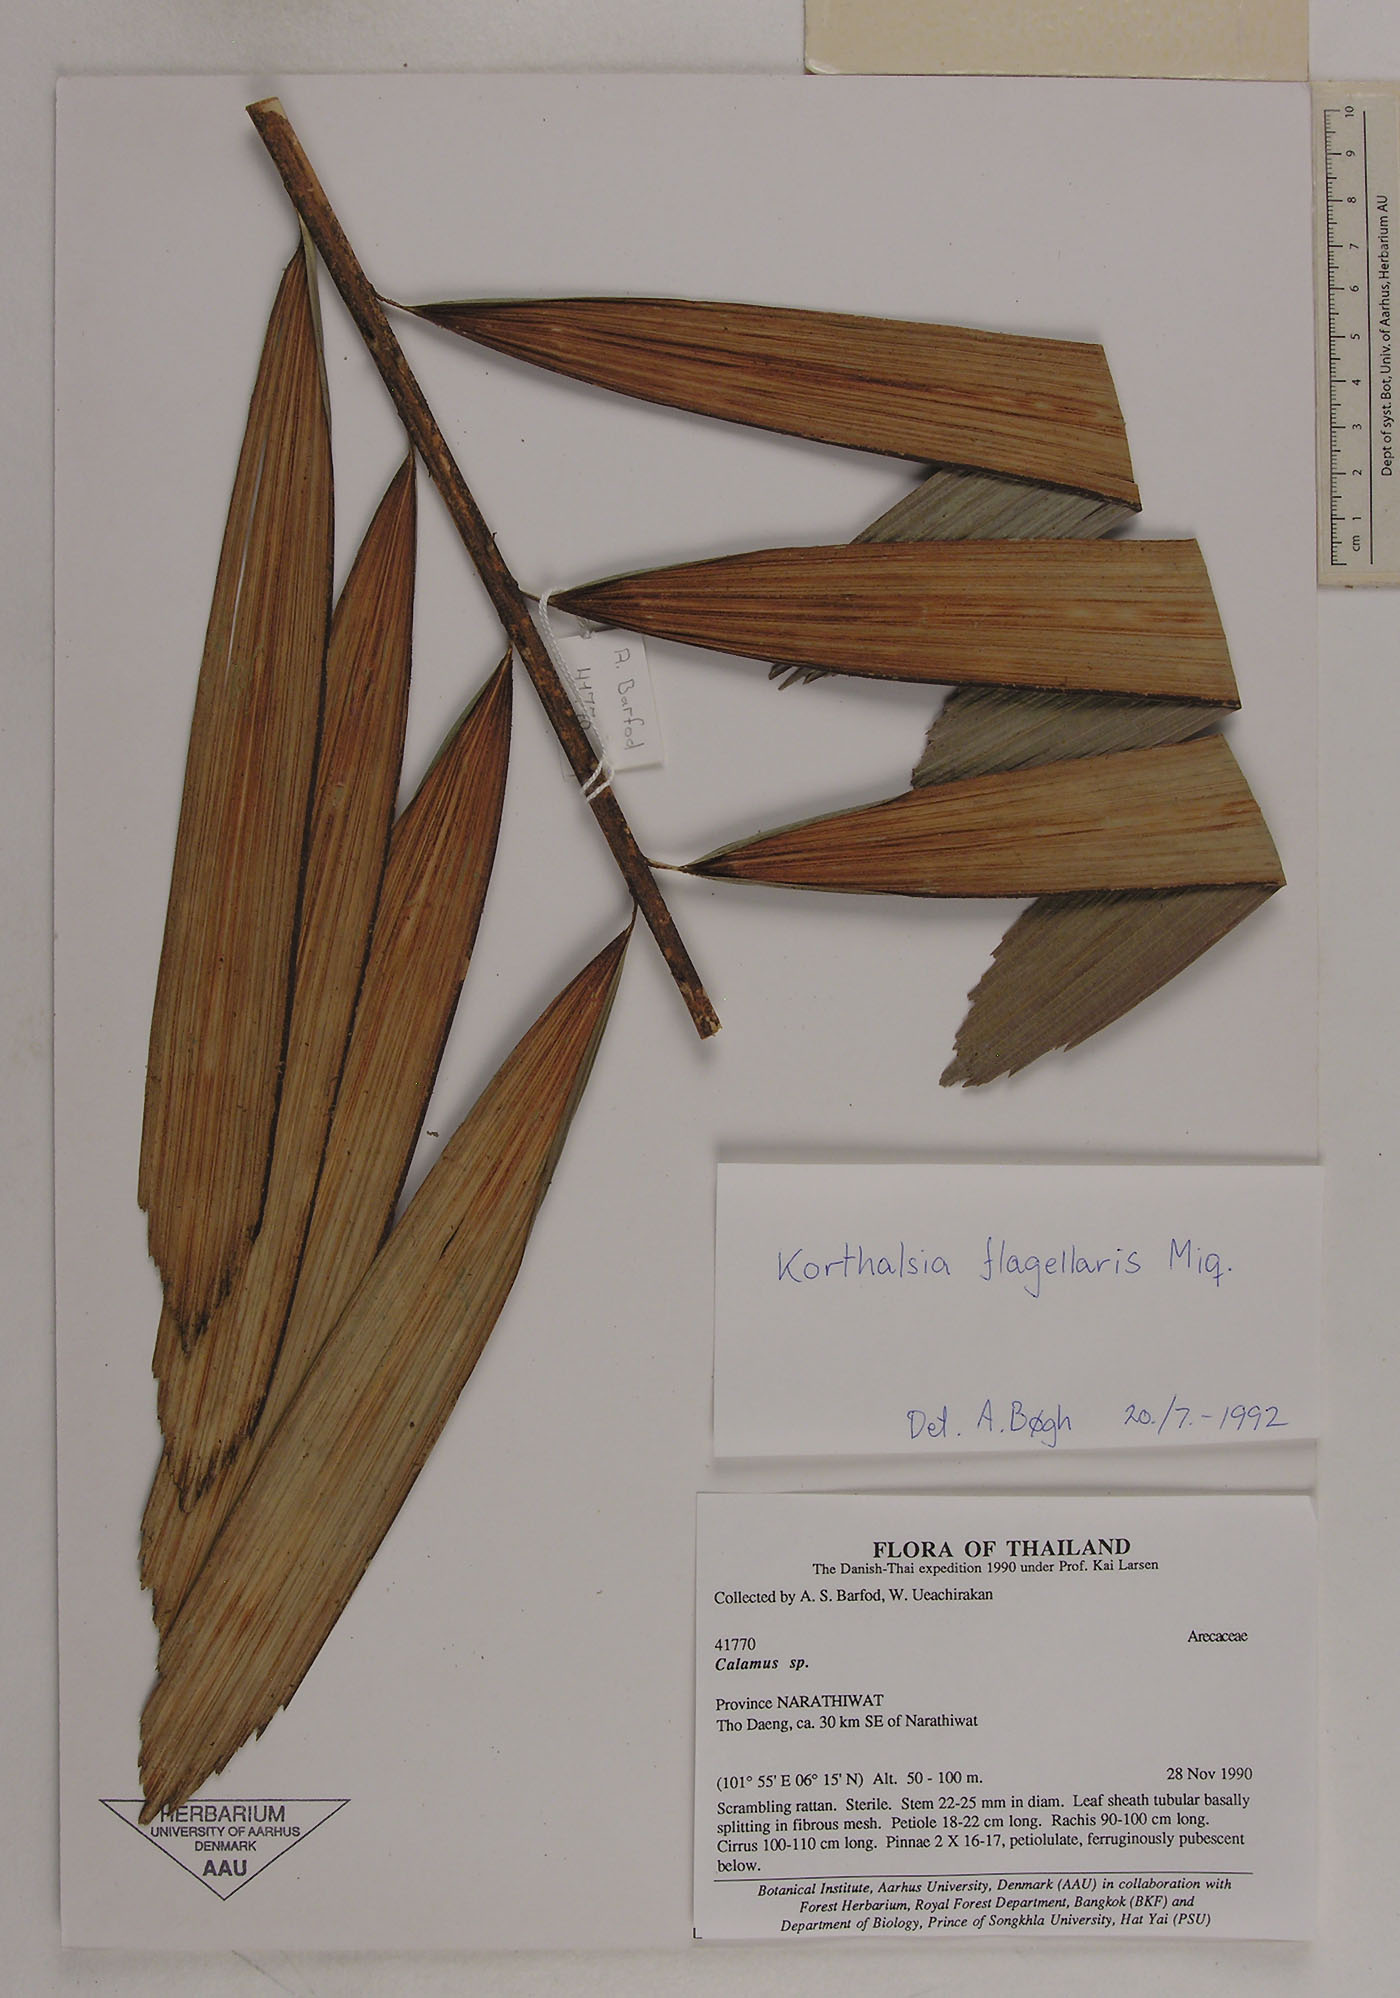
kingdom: Plantae
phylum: Tracheophyta
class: Liliopsida
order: Arecales
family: Arecaceae
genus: Korthalsia
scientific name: Korthalsia flagellaris
